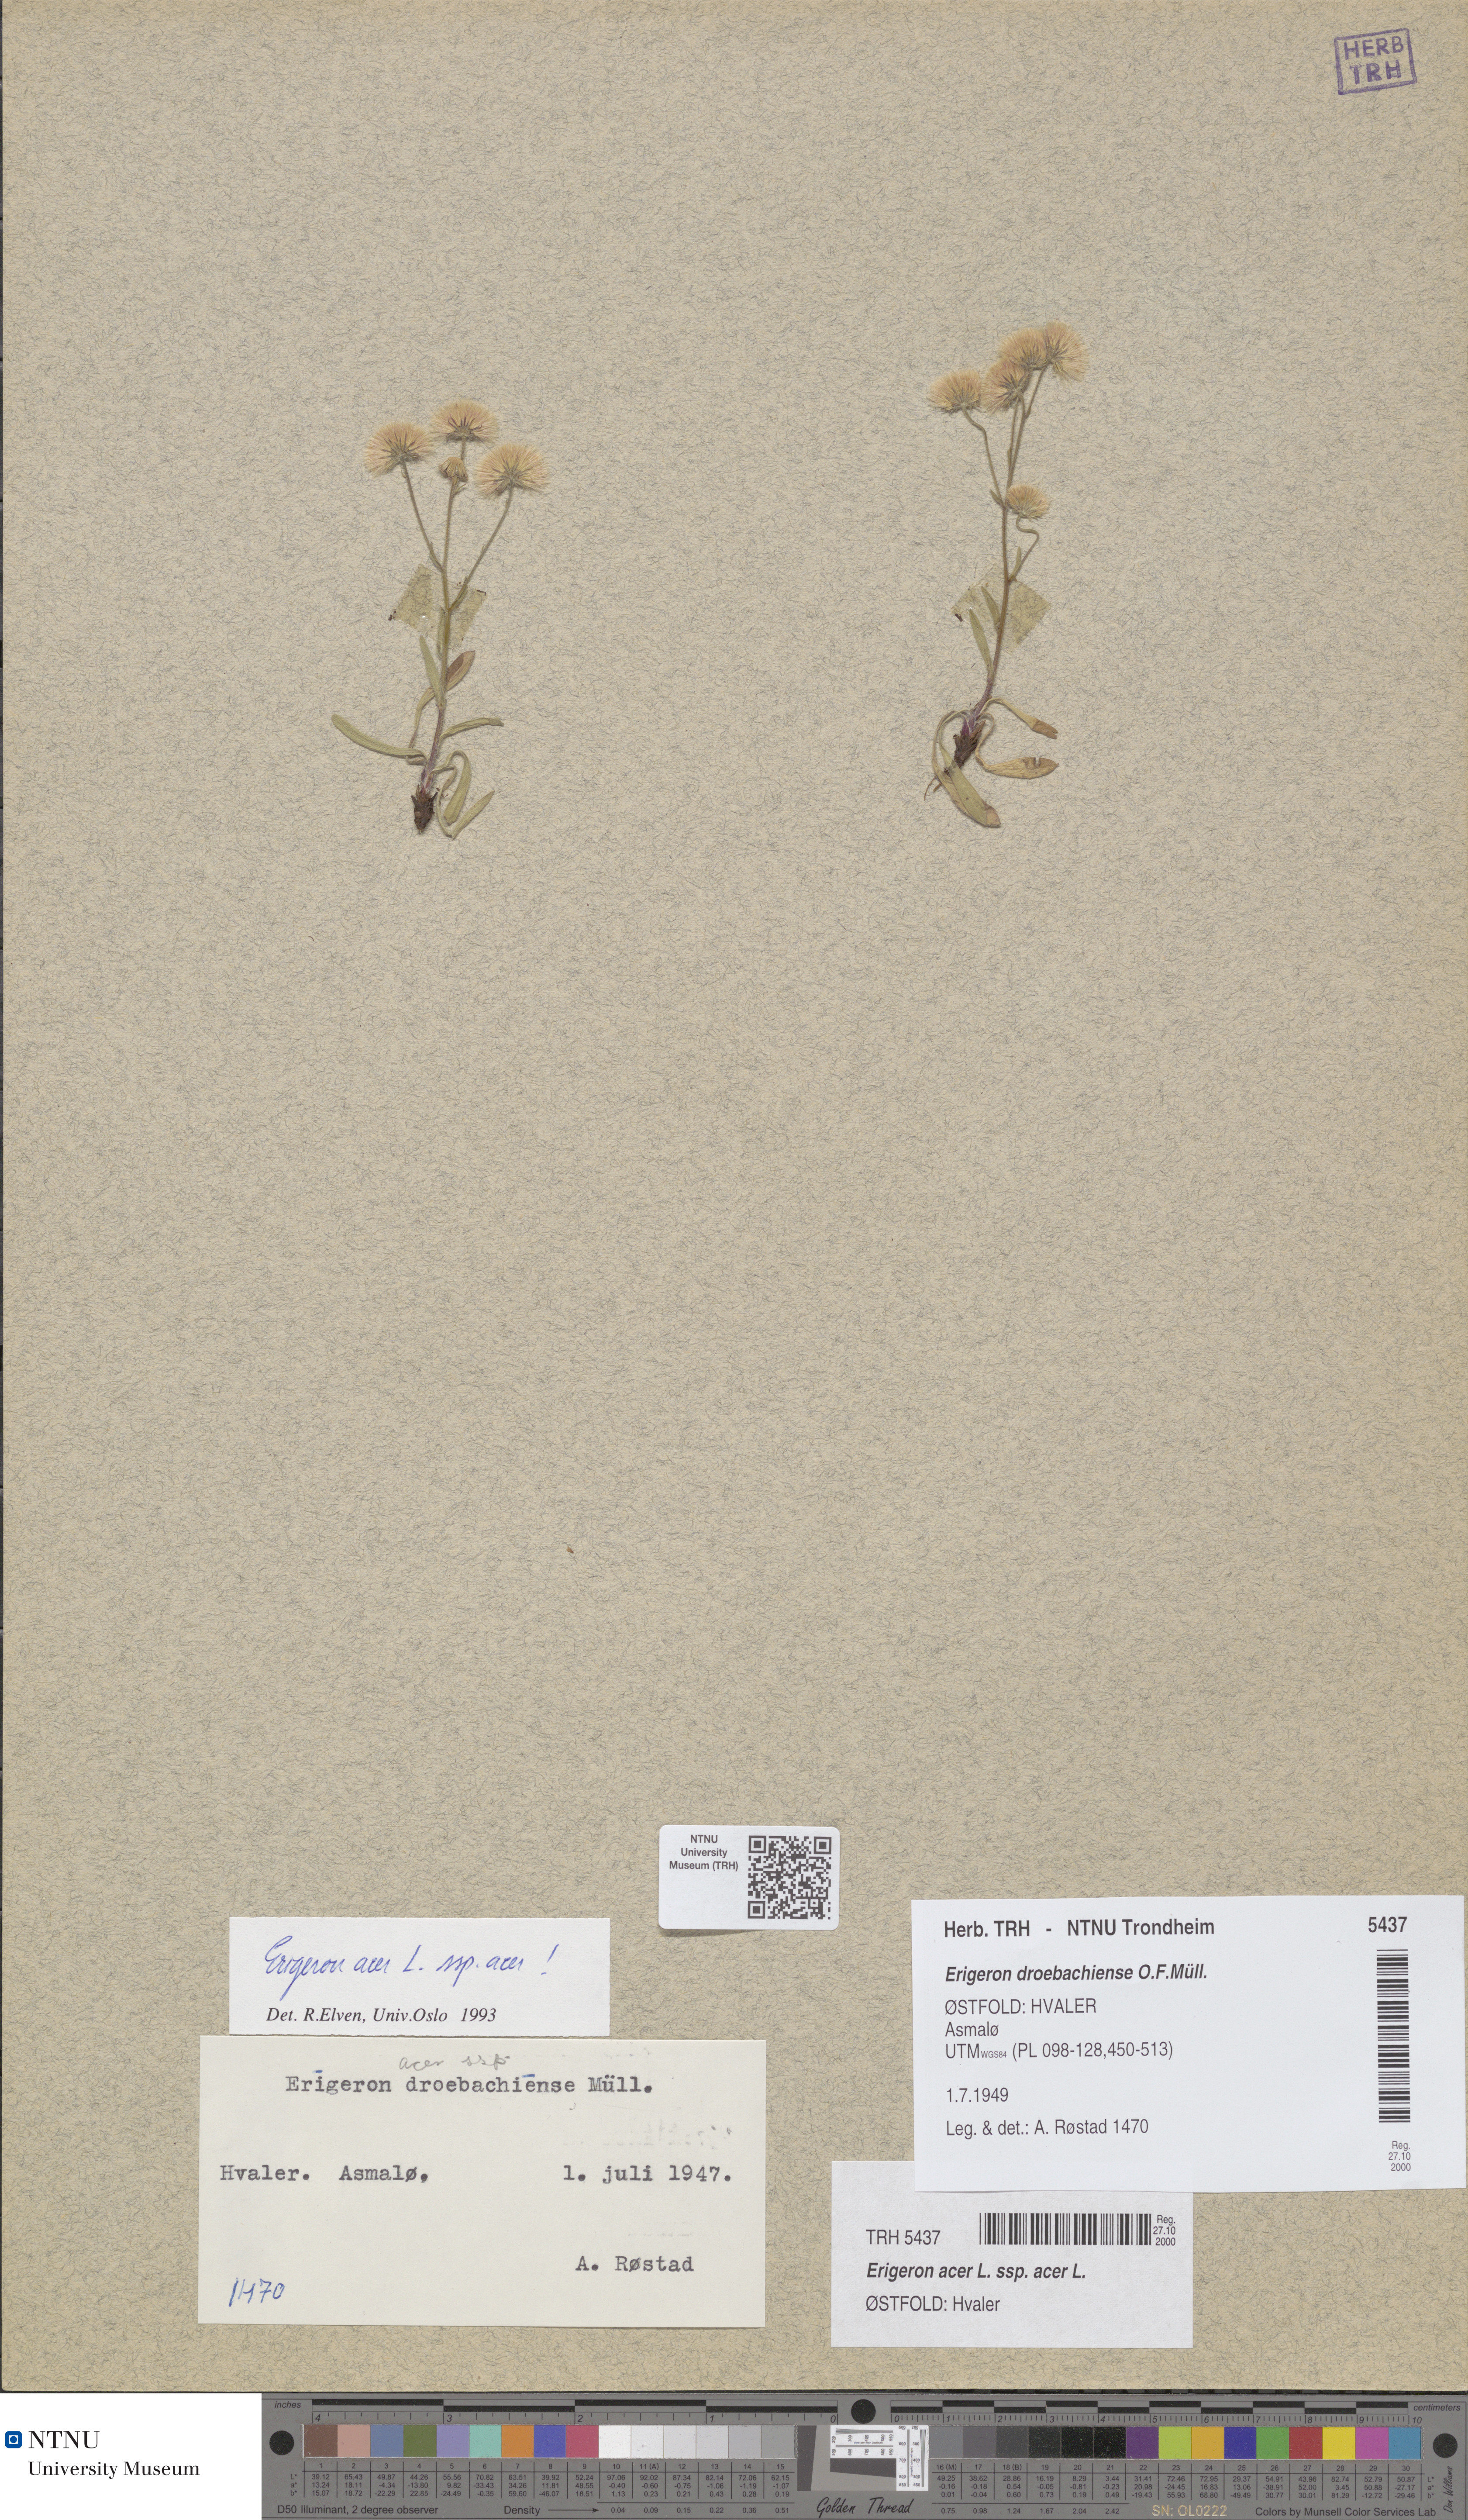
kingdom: Plantae
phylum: Tracheophyta
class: Magnoliopsida
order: Asterales
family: Asteraceae
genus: Erigeron
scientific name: Erigeron acris
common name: Blue fleabane
